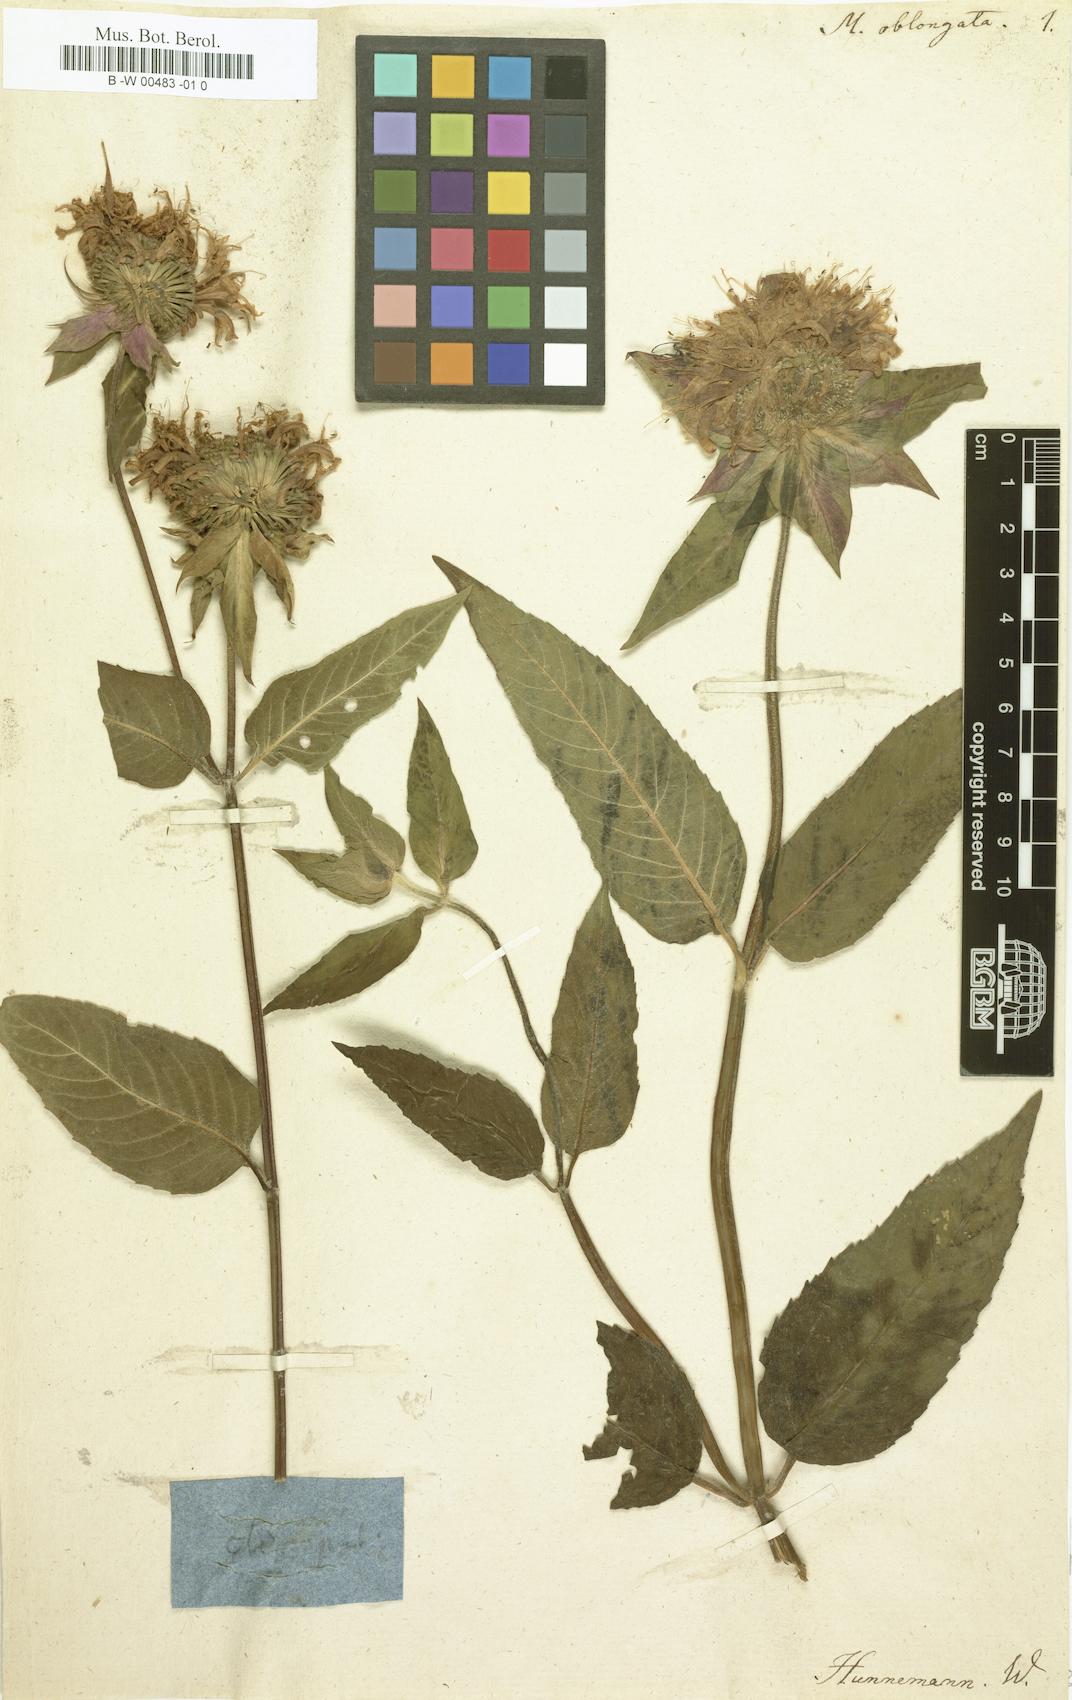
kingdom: Plantae
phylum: Tracheophyta
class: Magnoliopsida
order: Lamiales
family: Lamiaceae
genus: Monarda
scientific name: Monarda fistulosa
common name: Purple beebalm
